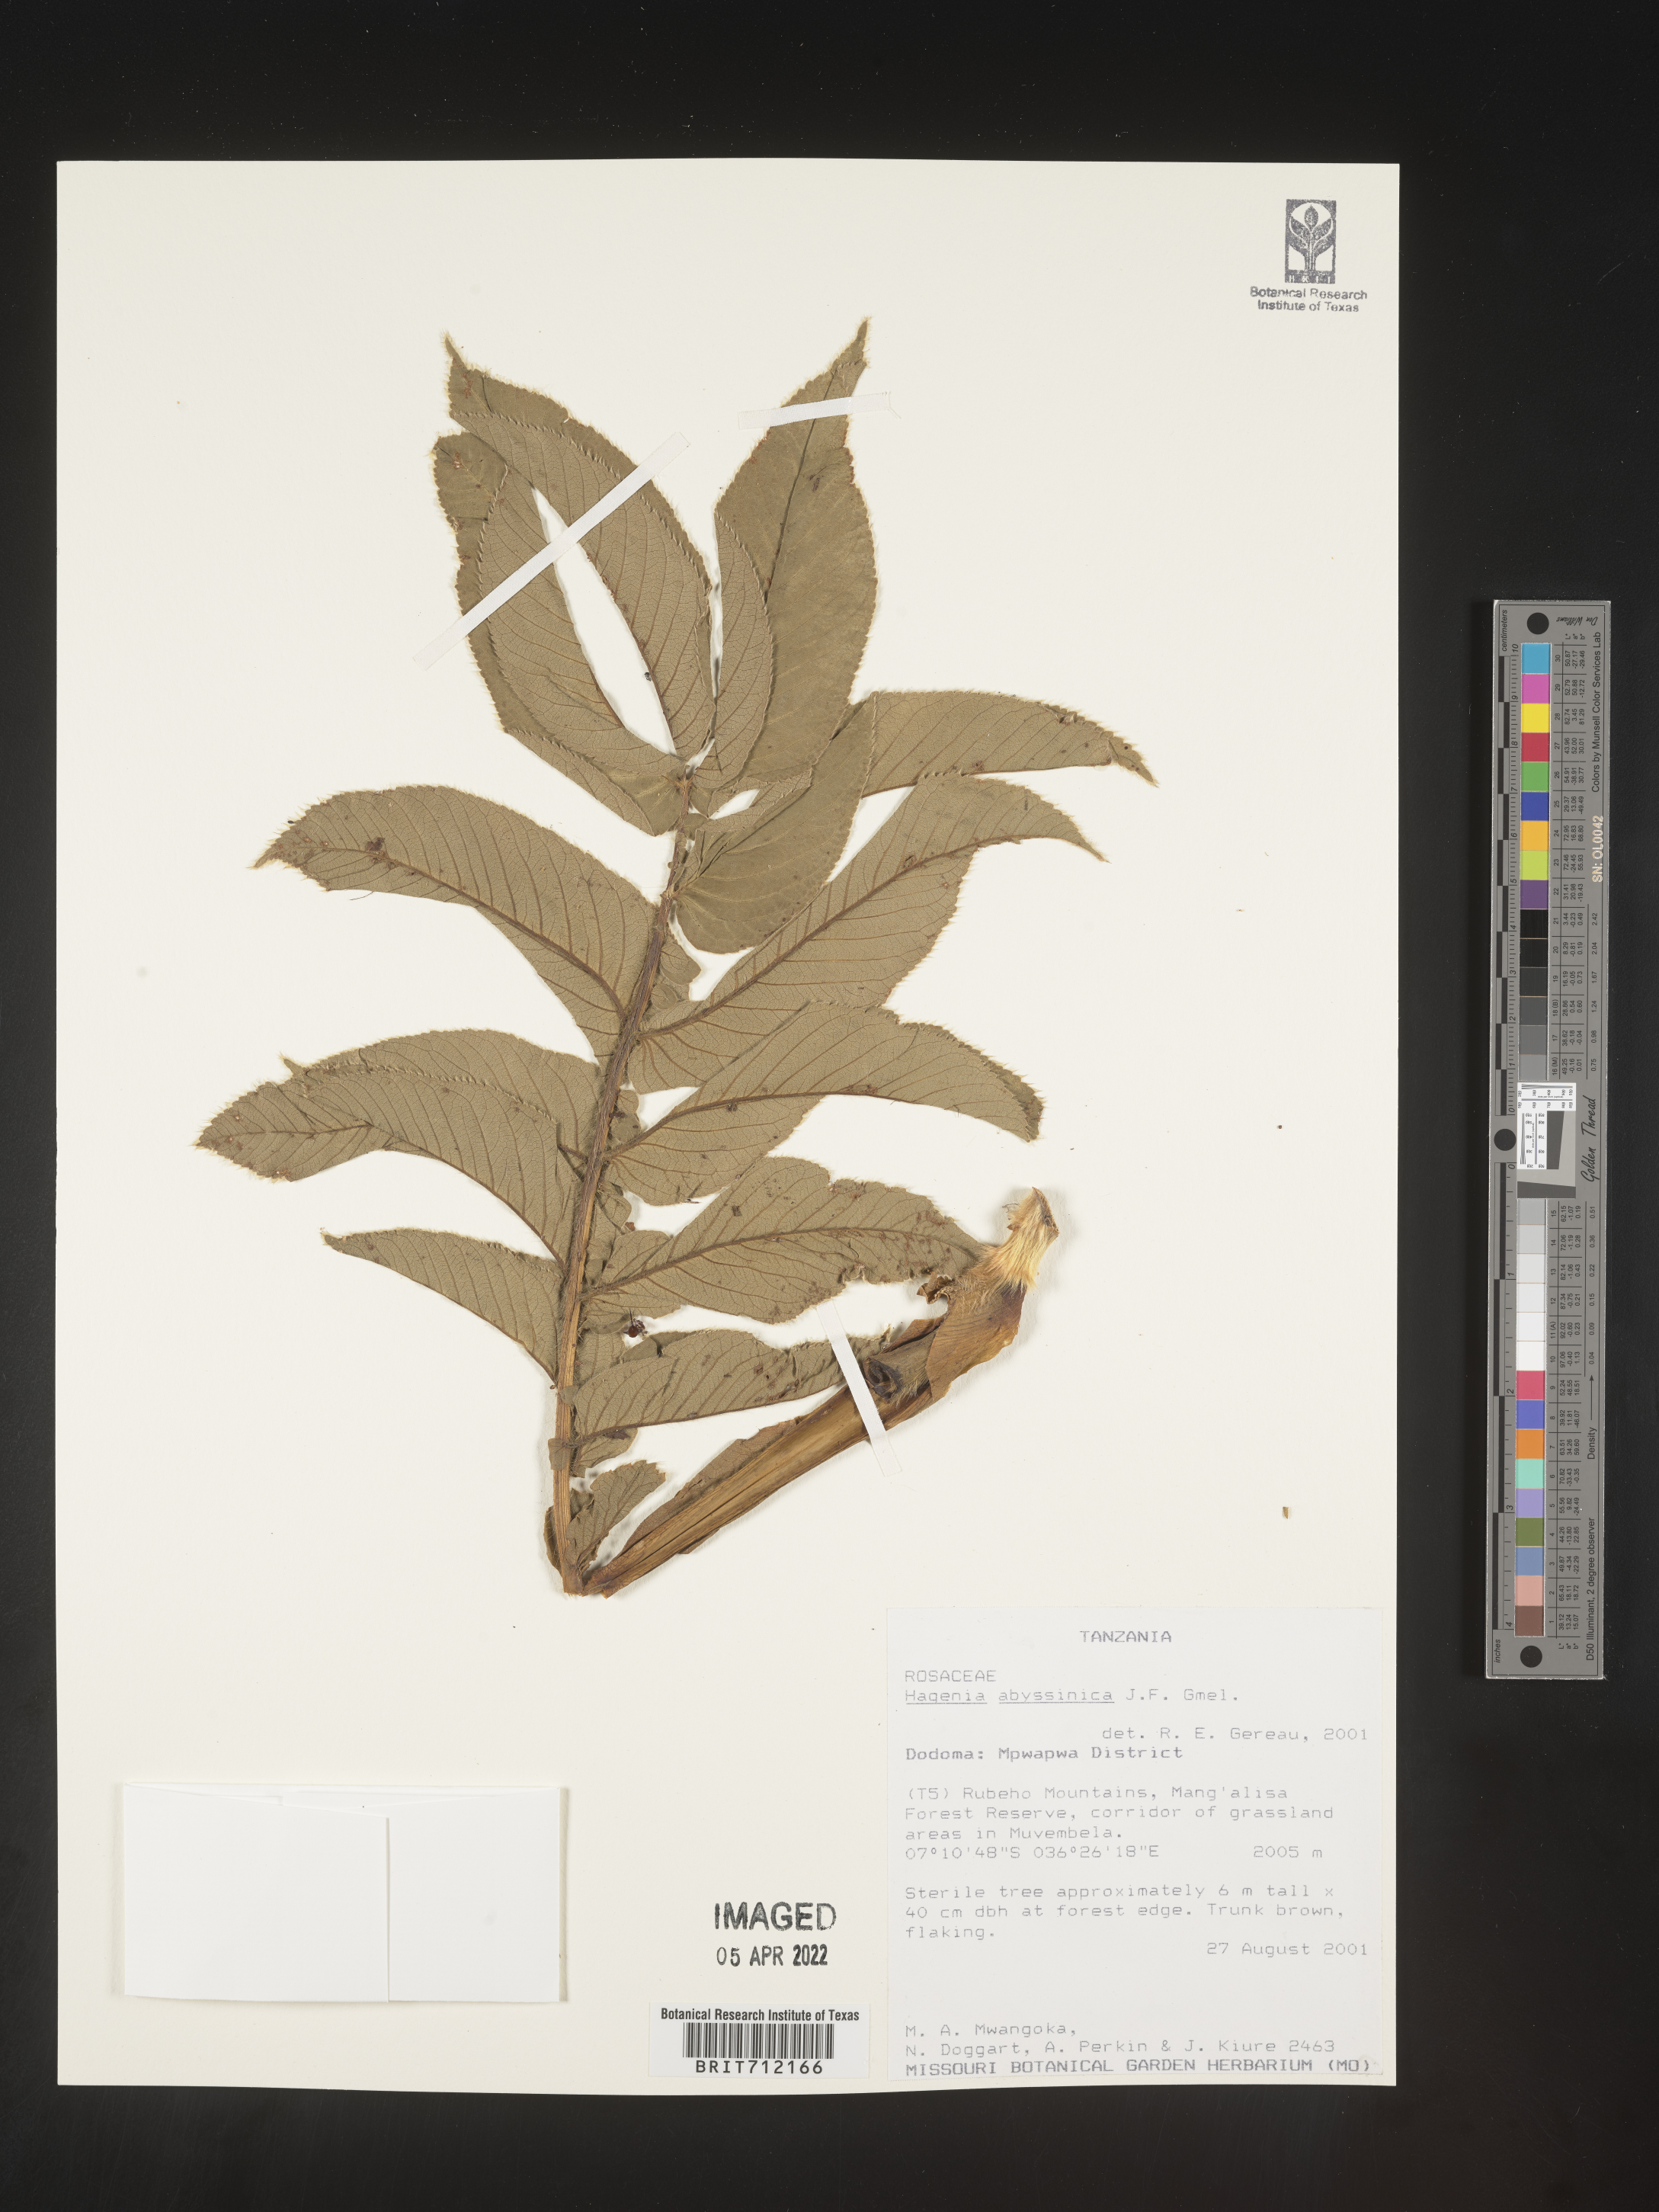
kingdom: Plantae
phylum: Tracheophyta
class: Magnoliopsida
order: Rosales
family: Rosaceae
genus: Hagenia
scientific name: Hagenia
